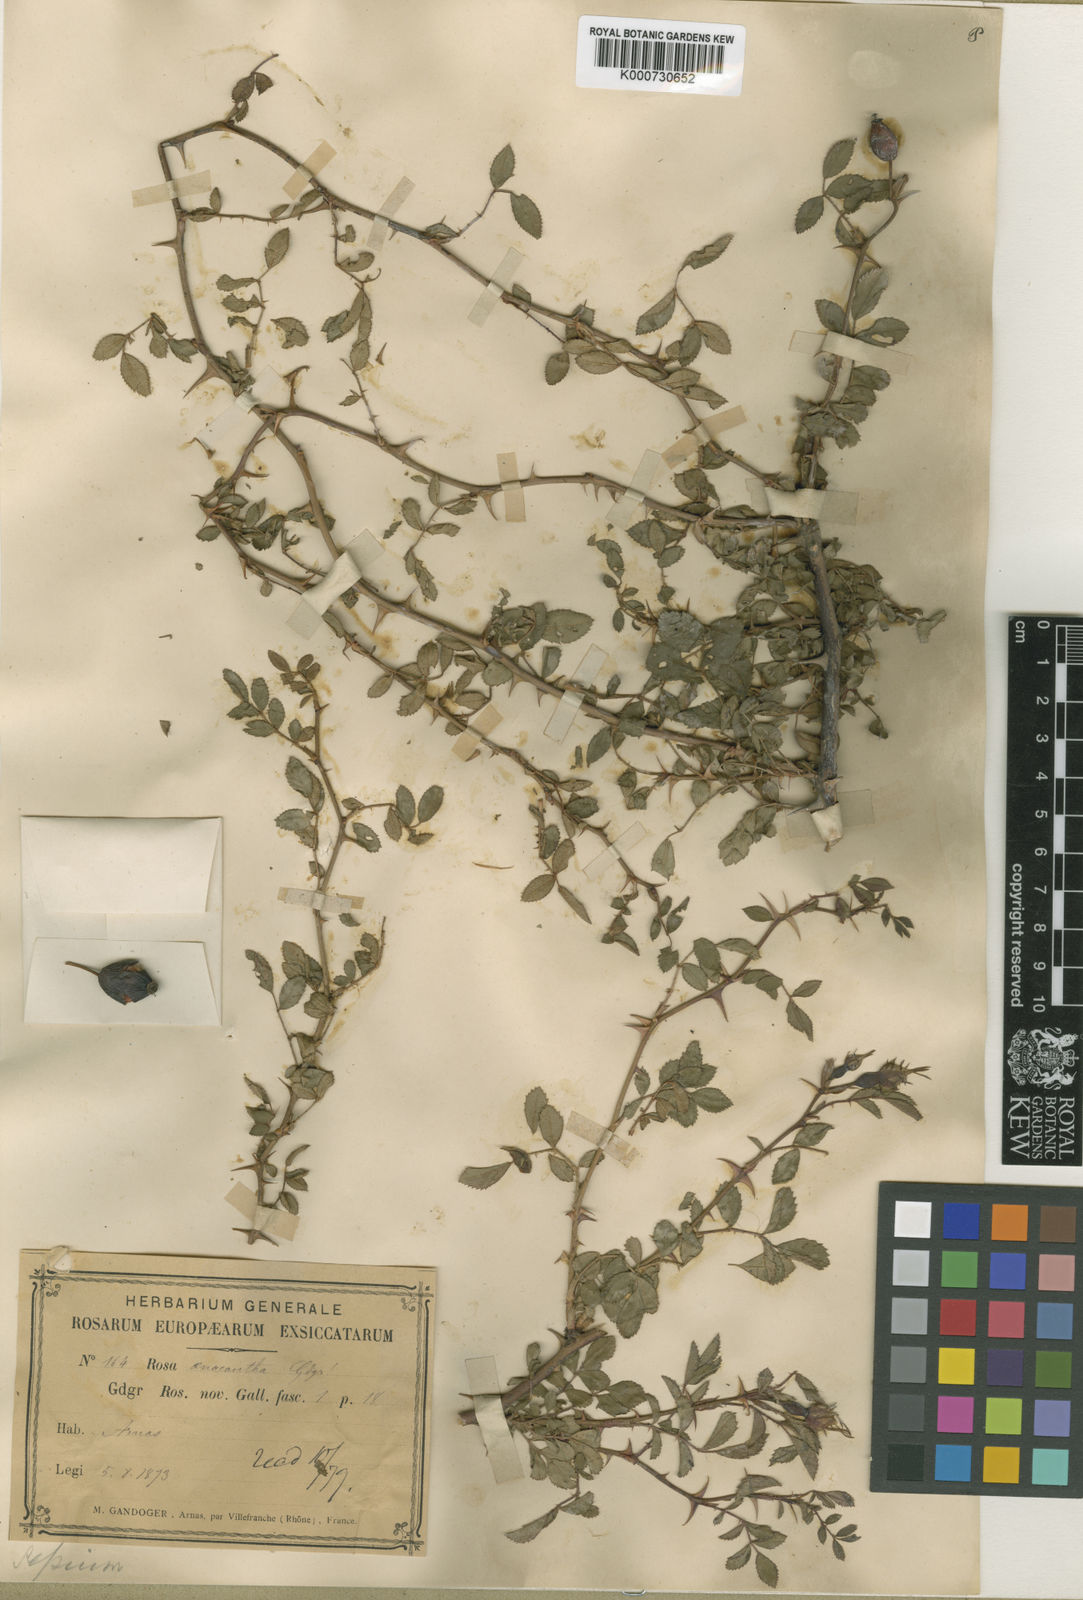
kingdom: Plantae
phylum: Tracheophyta
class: Magnoliopsida
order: Rosales
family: Rosaceae
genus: Rosa
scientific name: Rosa agrestis
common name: Fieldbriar
